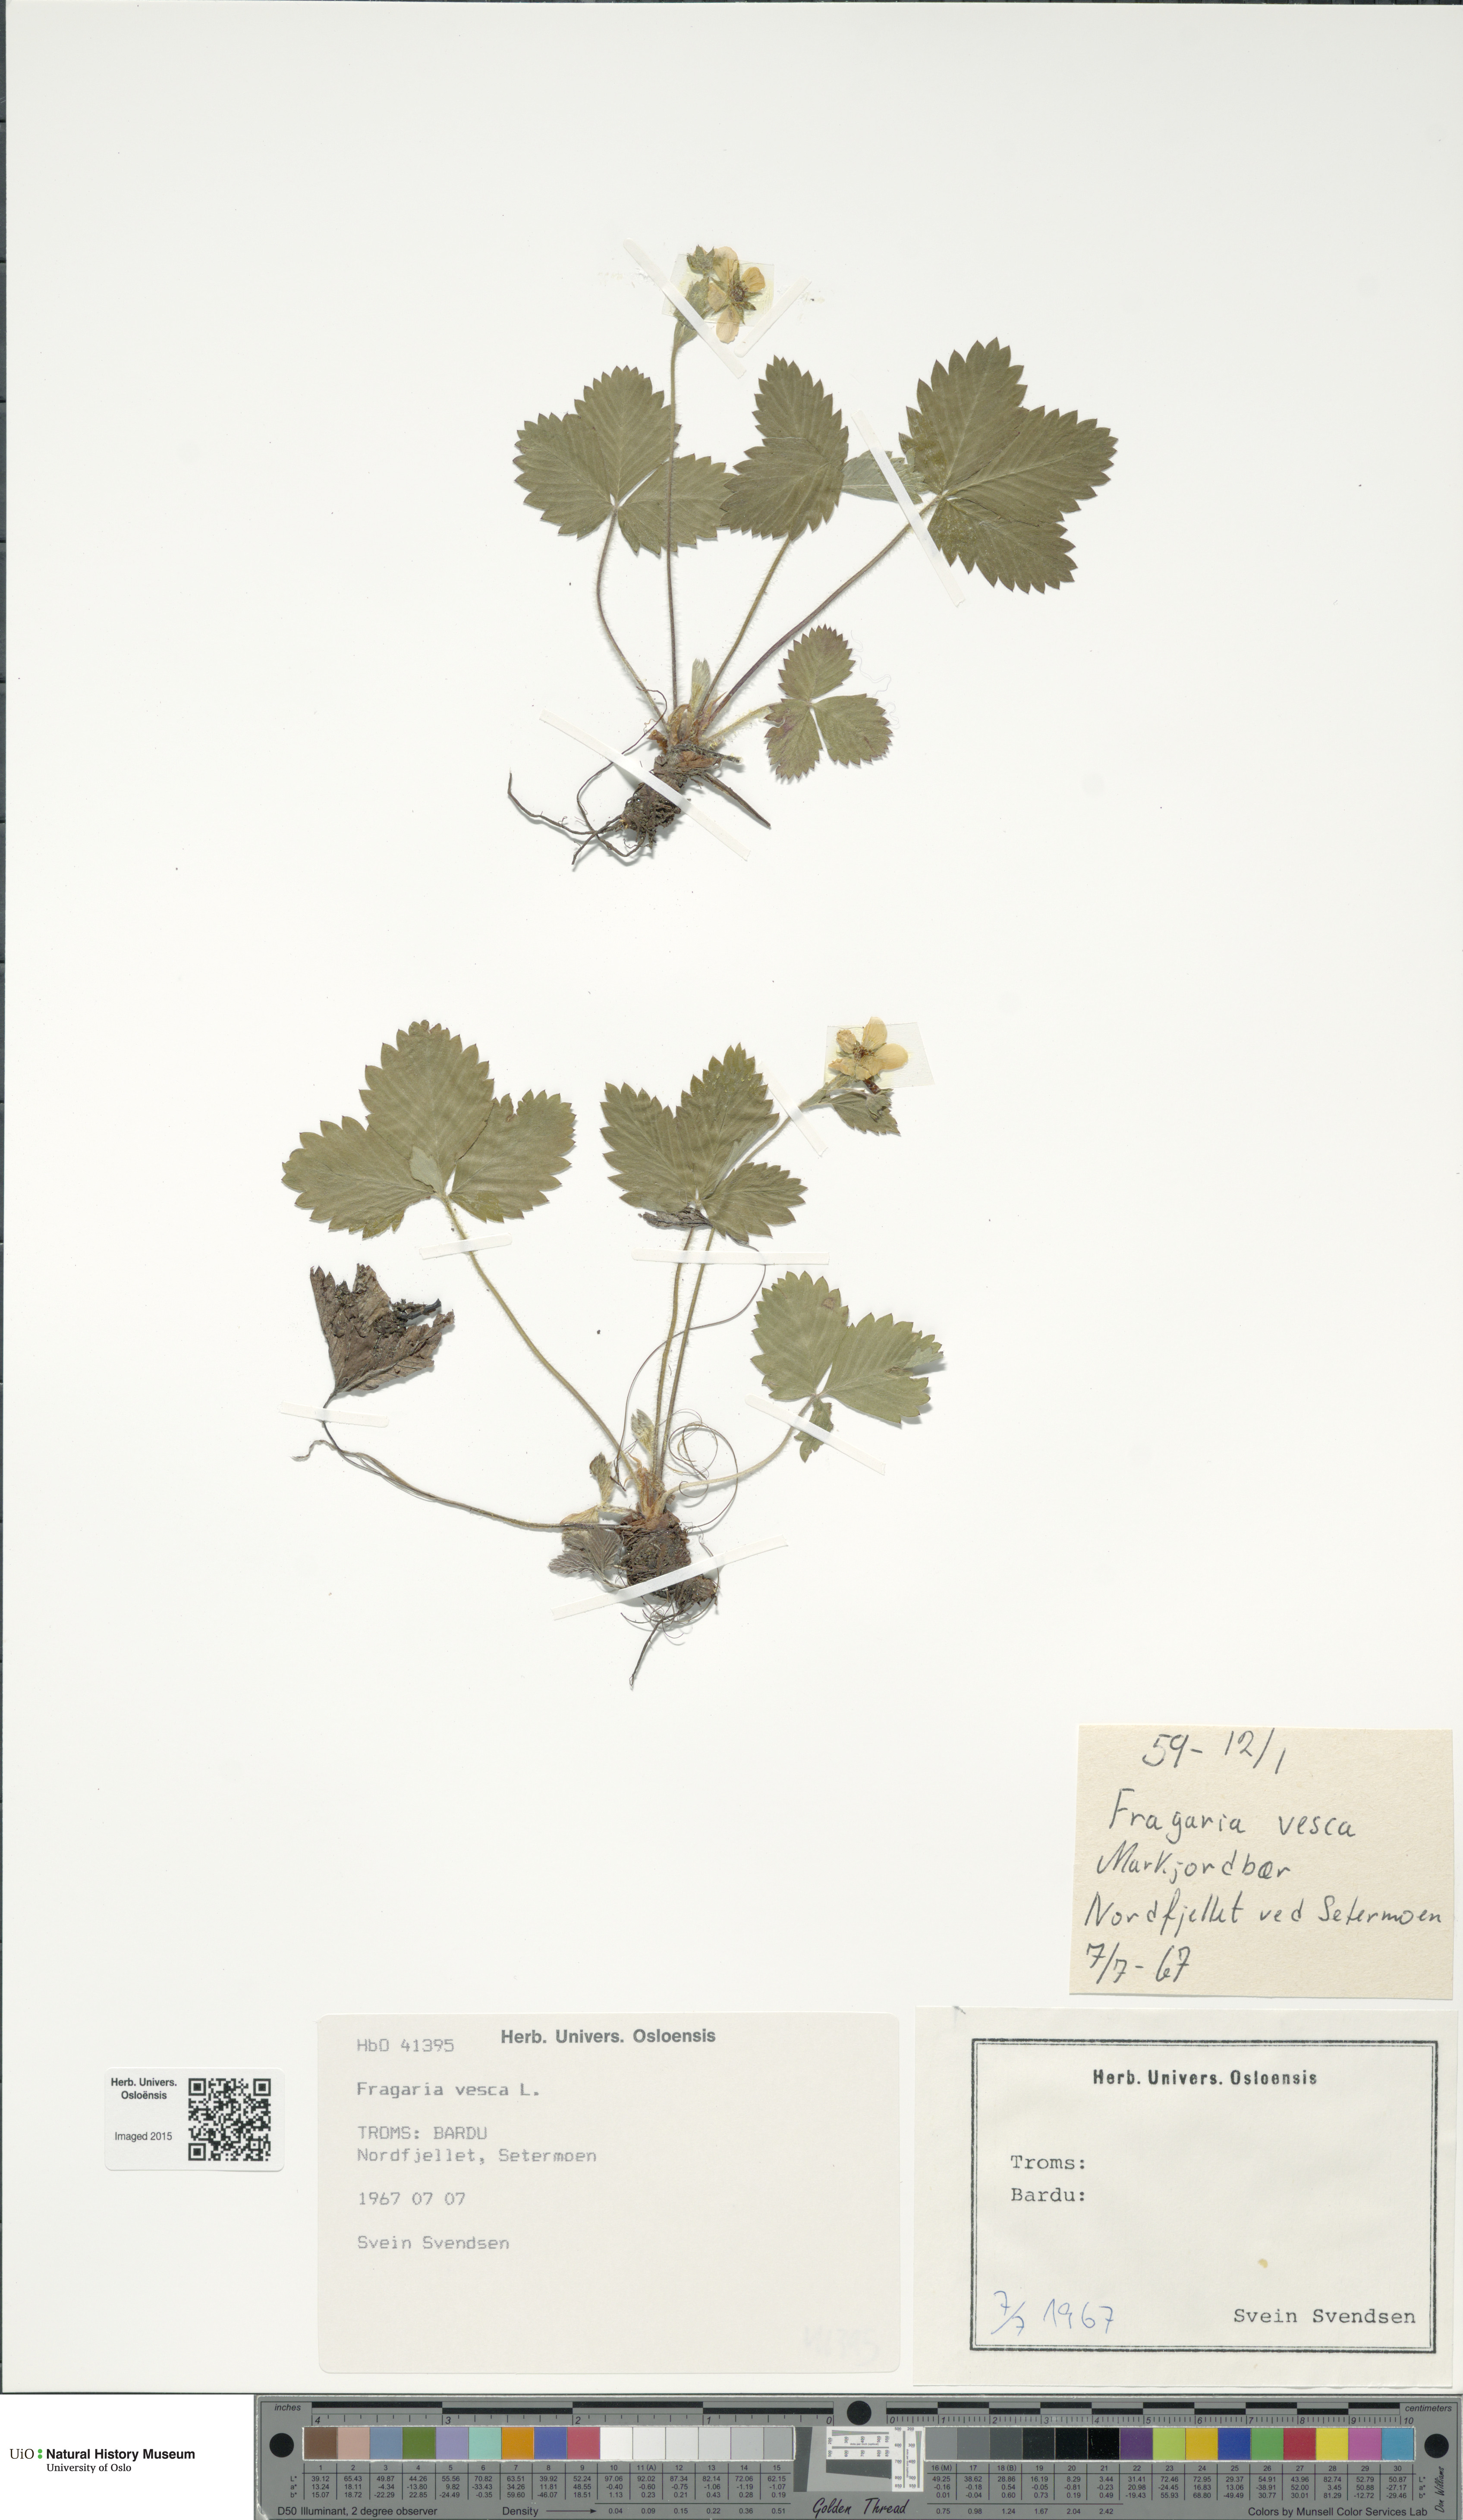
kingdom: Plantae
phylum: Tracheophyta
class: Magnoliopsida
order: Rosales
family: Rosaceae
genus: Fragaria
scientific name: Fragaria vesca
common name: Wild strawberry
